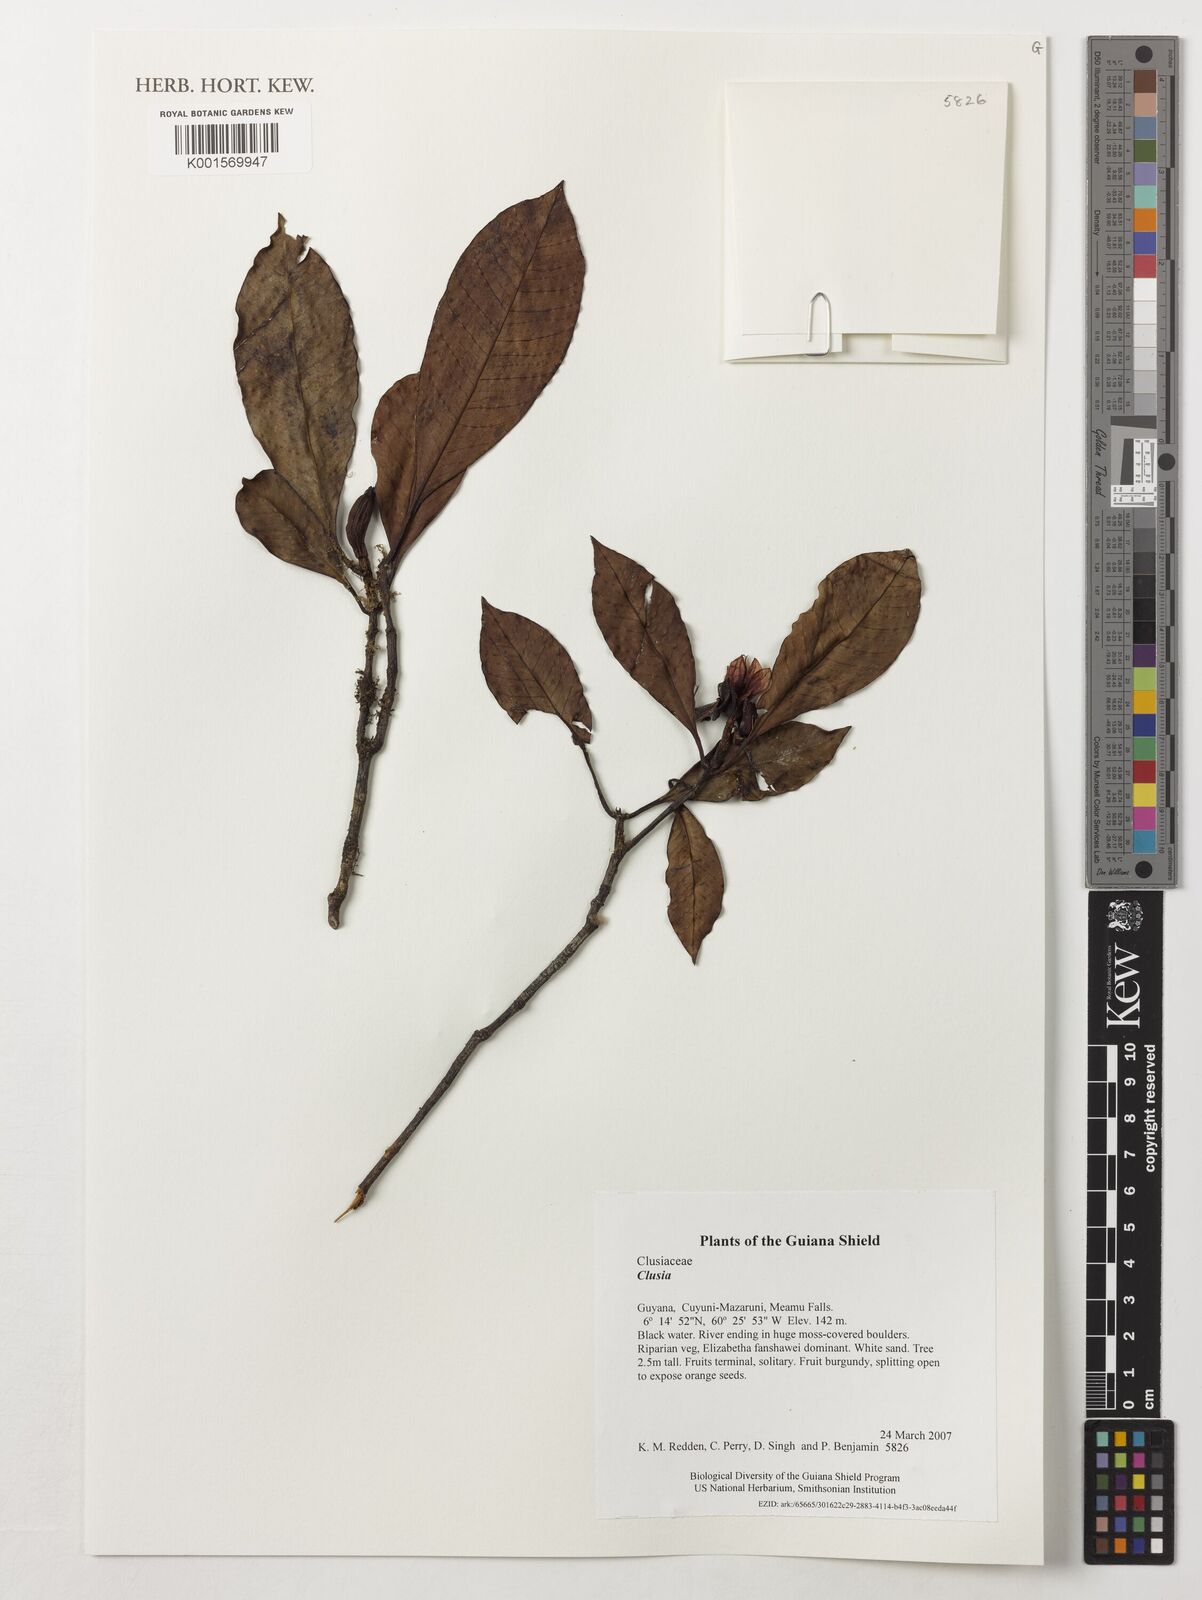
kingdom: Plantae
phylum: Tracheophyta
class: Magnoliopsida
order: Malpighiales
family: Clusiaceae
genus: Clusia
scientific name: Clusia
